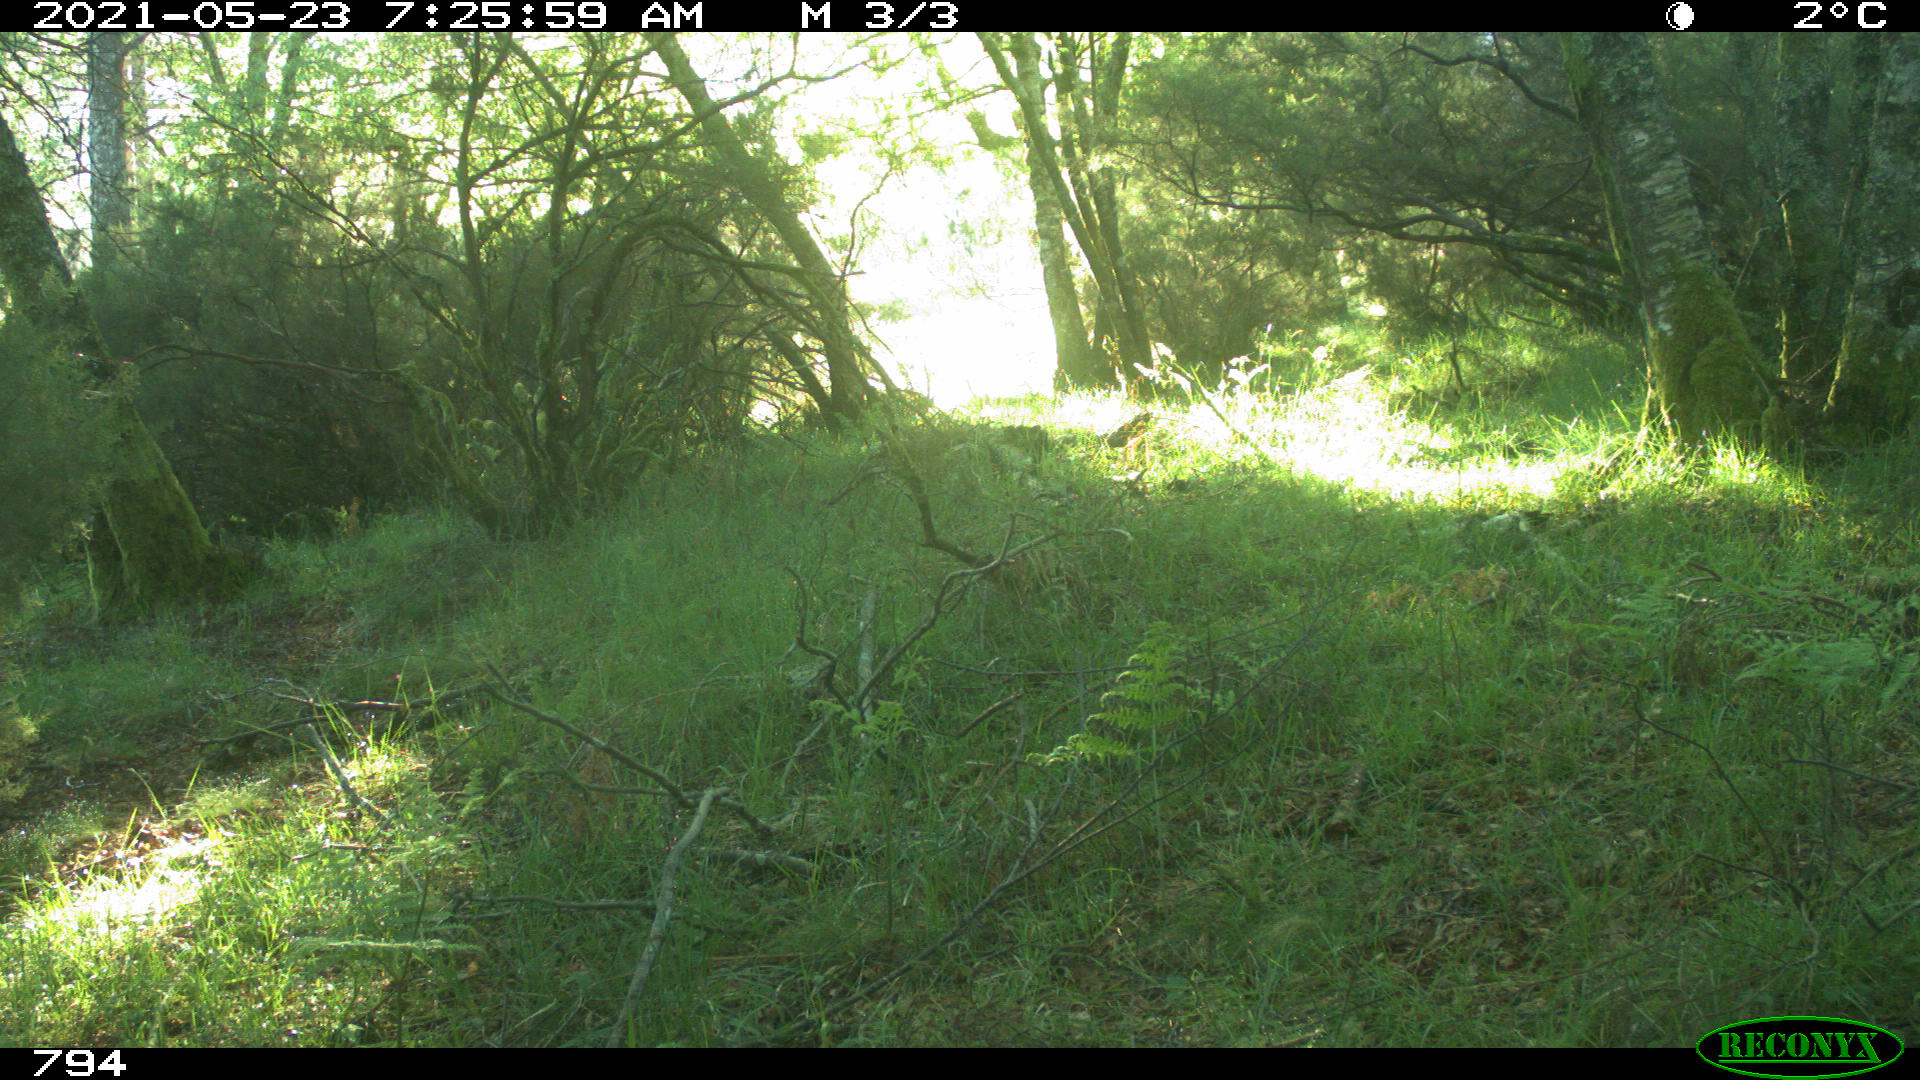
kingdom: Animalia
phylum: Chordata
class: Mammalia
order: Artiodactyla
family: Cervidae
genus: Capreolus
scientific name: Capreolus capreolus
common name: Western roe deer
